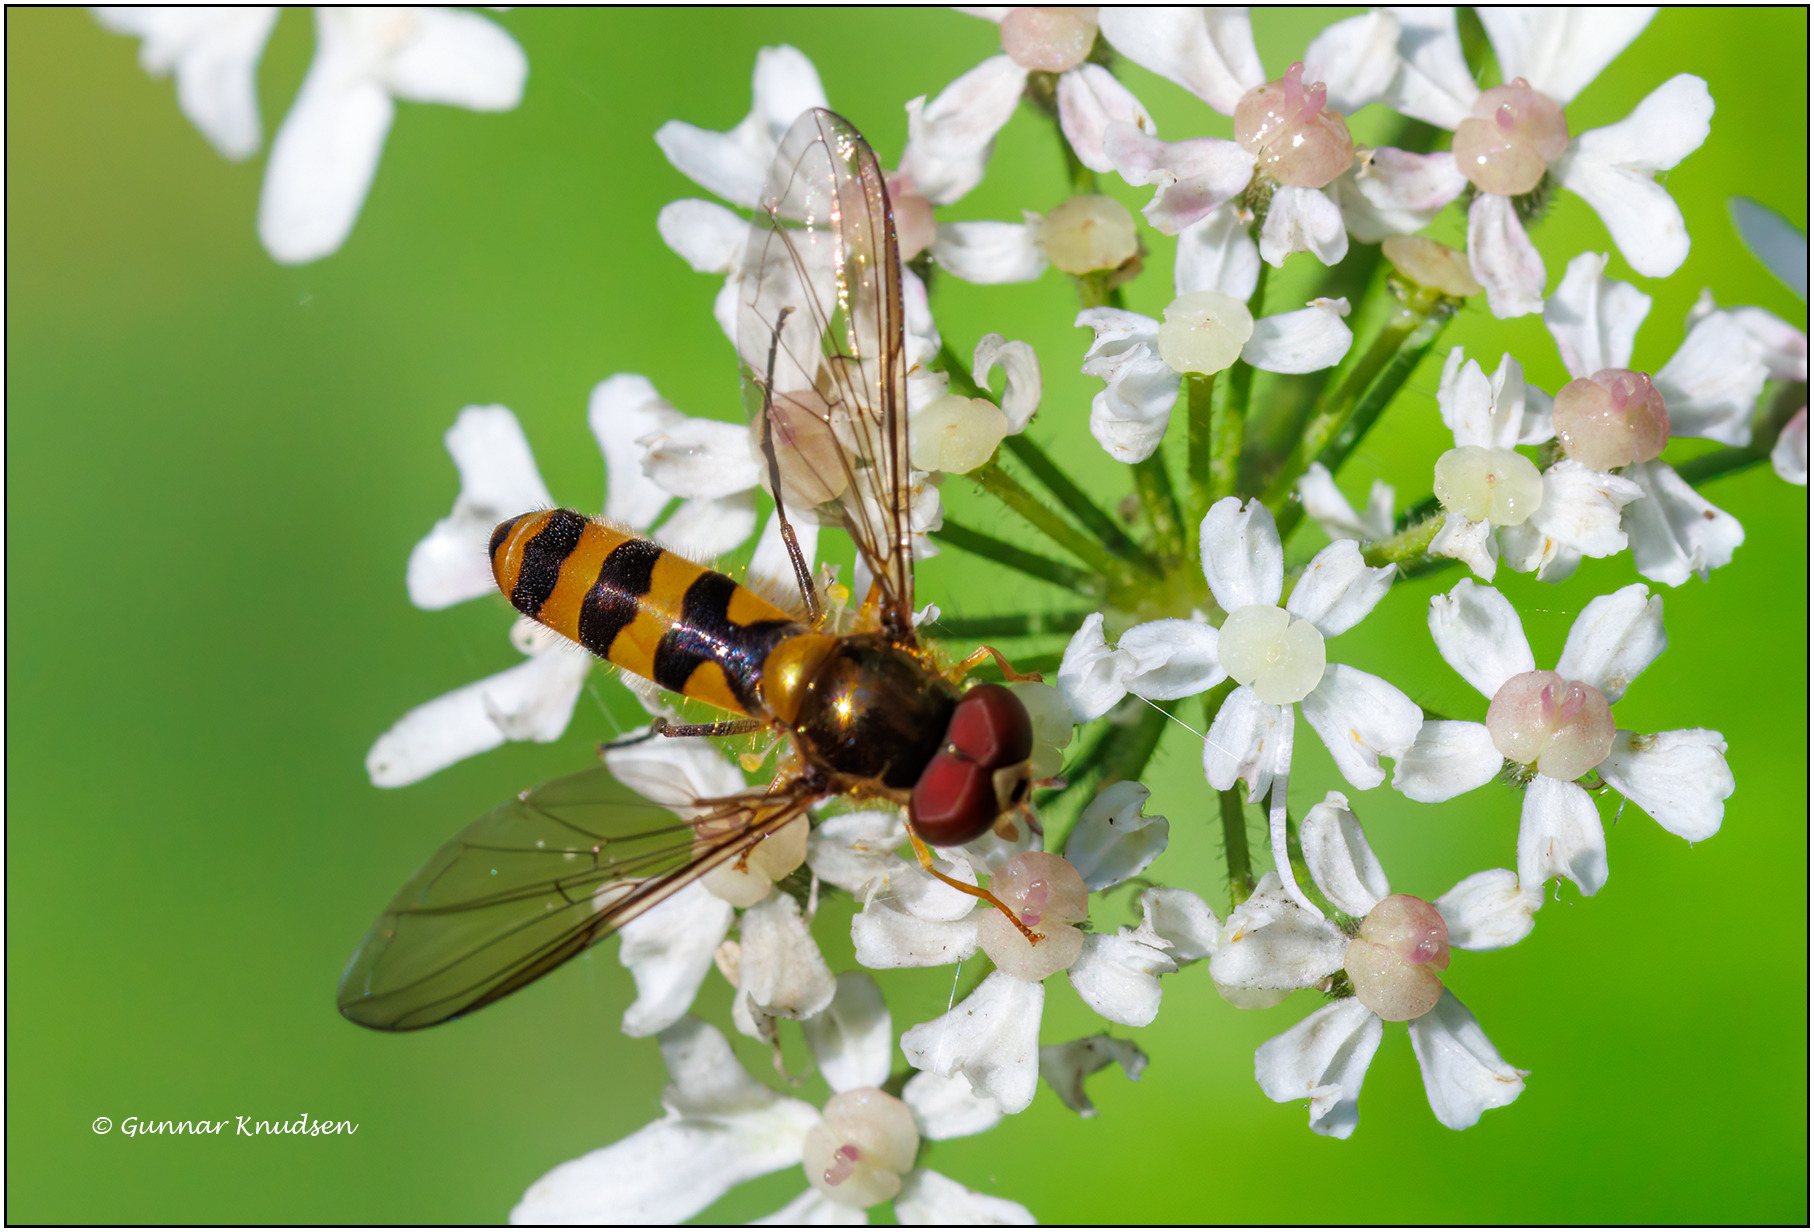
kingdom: Animalia
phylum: Arthropoda
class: Insecta
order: Diptera
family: Syrphidae
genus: Meliscaeva
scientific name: Meliscaeva cinctella
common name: Bælte-svirreflue
